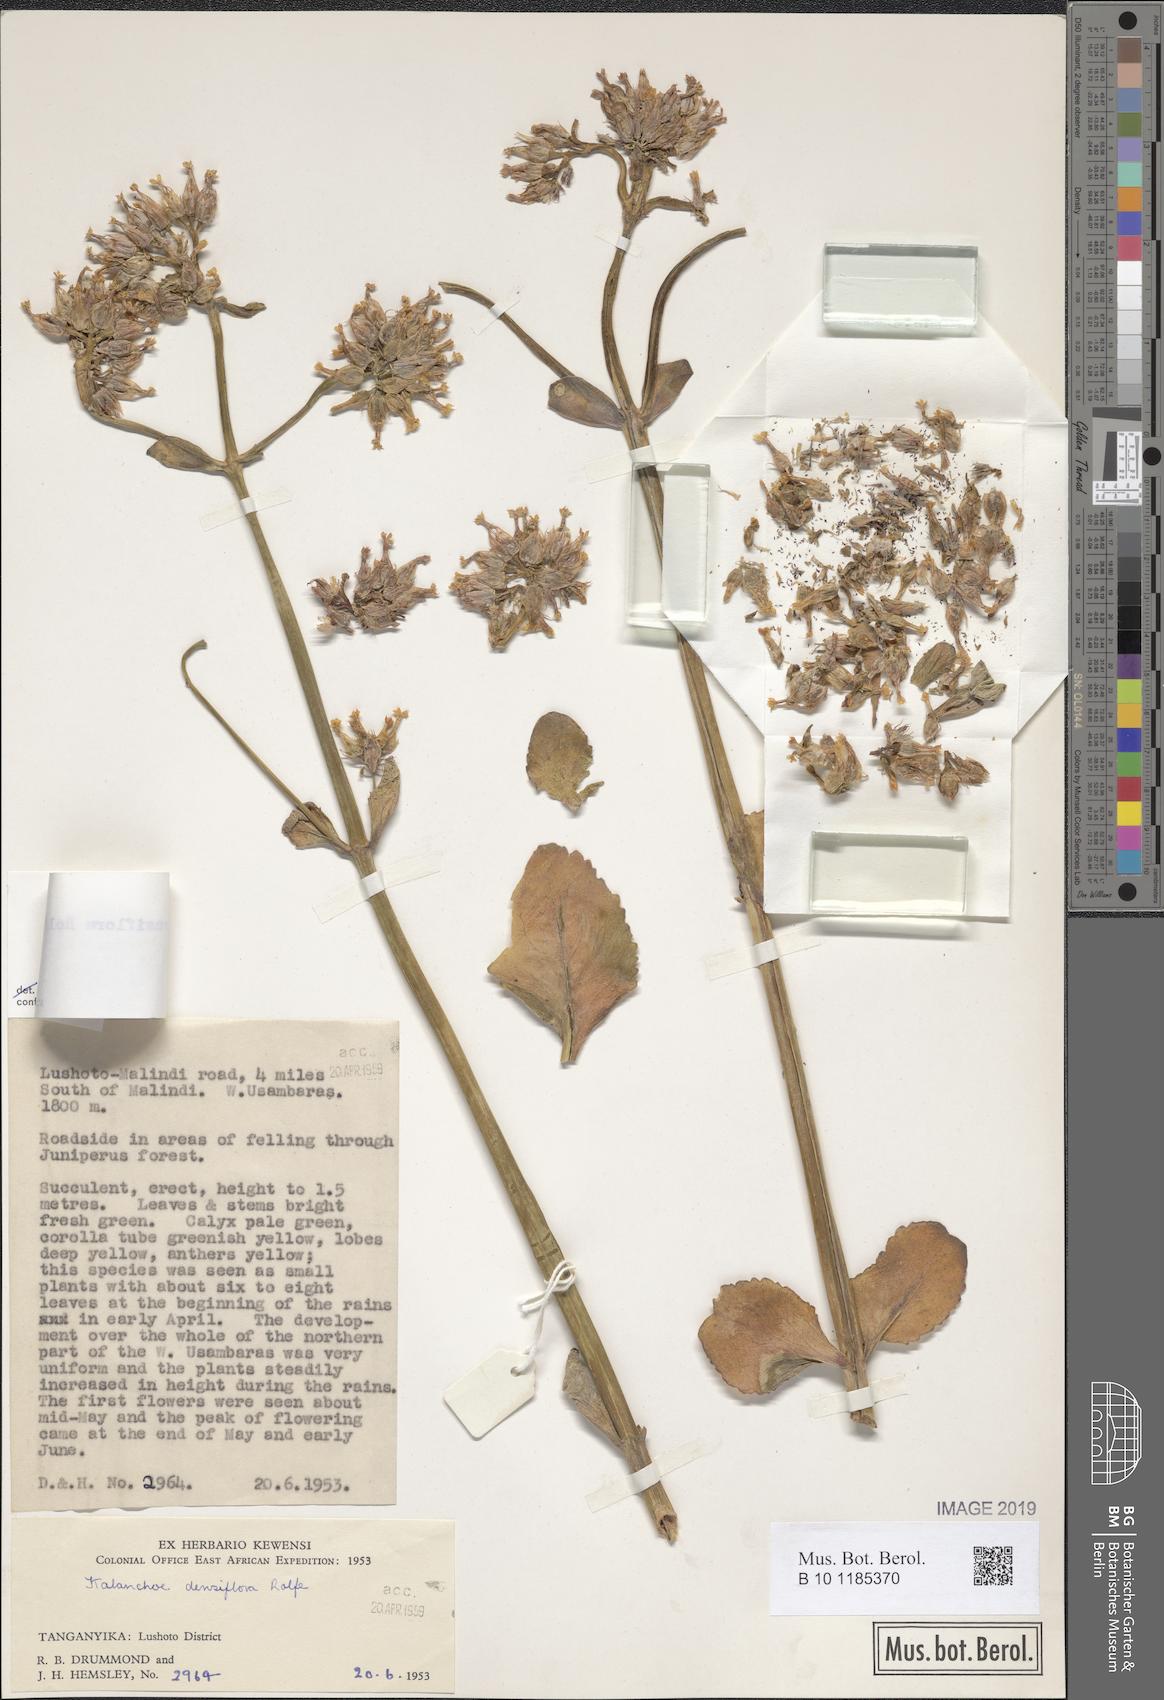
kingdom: Plantae
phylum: Tracheophyta
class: Magnoliopsida
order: Saxifragales
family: Crassulaceae
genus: Kalanchoe
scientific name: Kalanchoe densiflora
